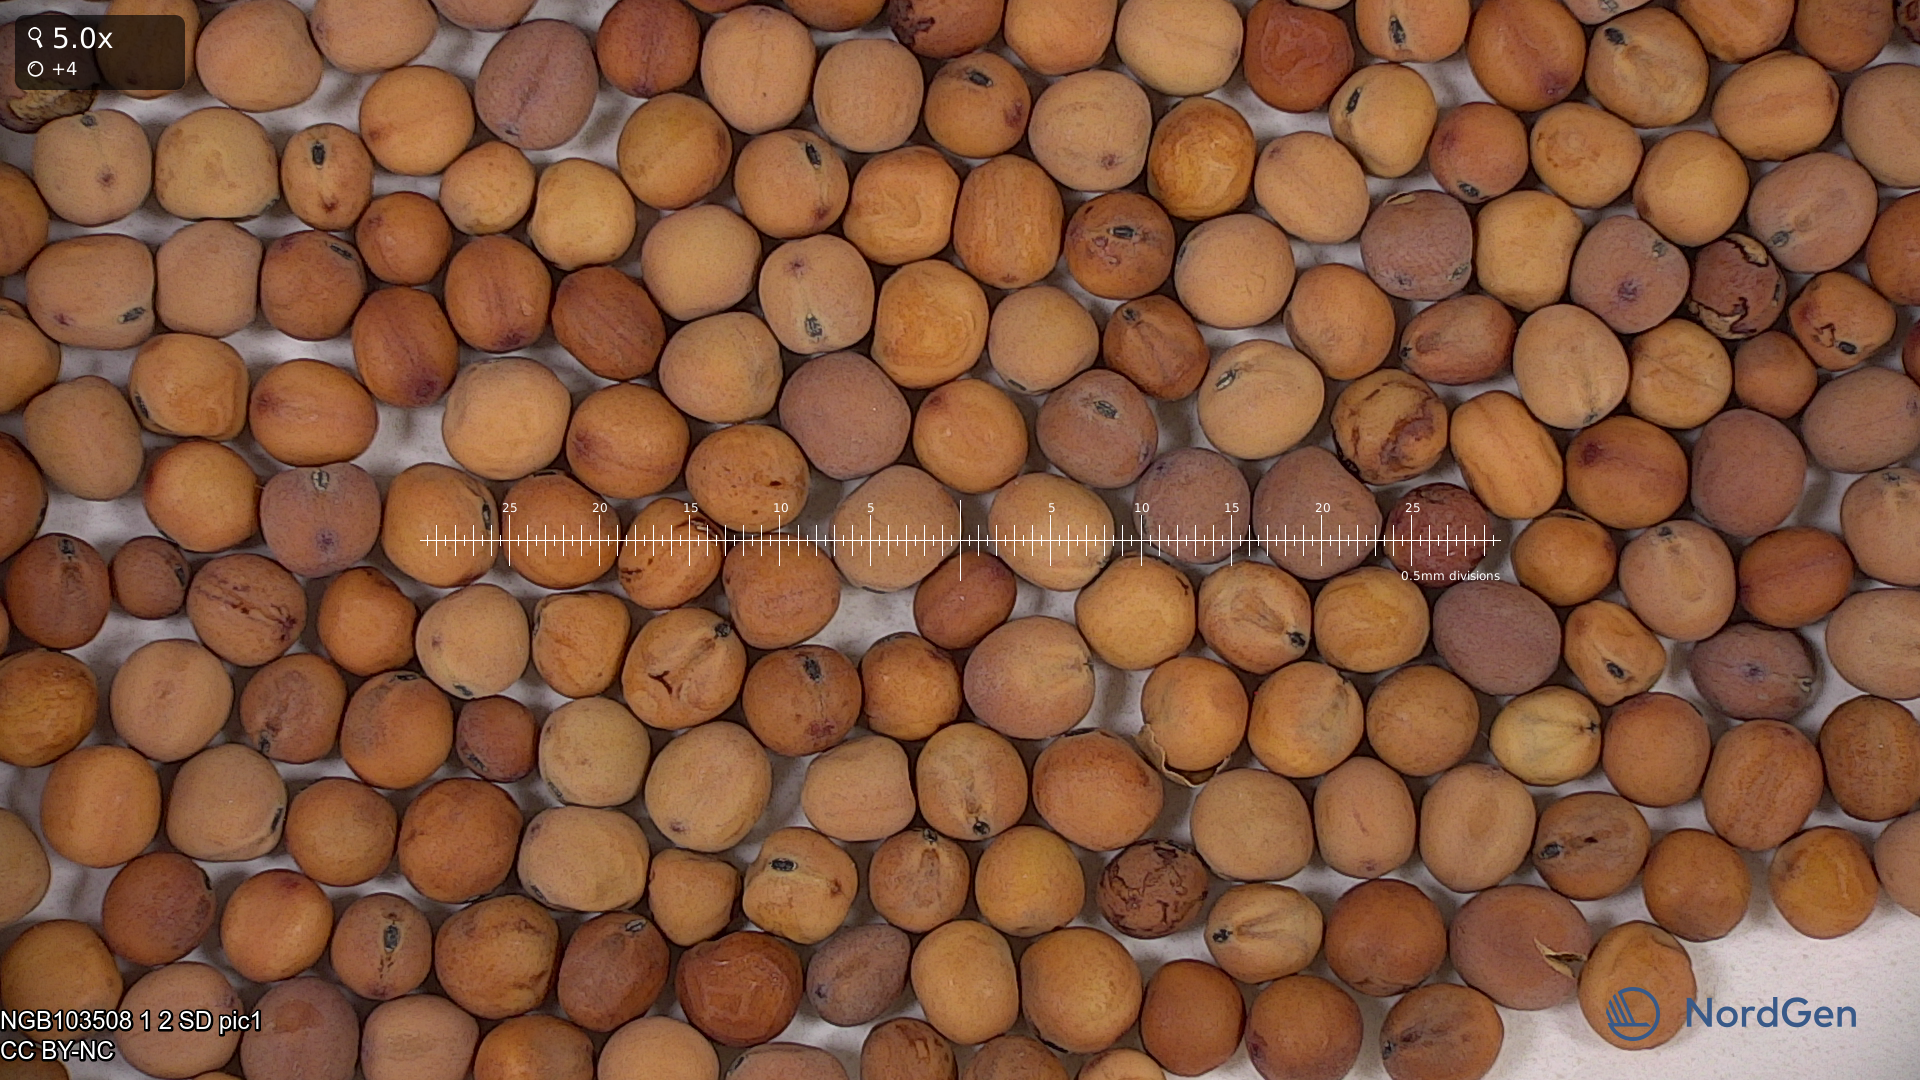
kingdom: Plantae
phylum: Tracheophyta
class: Magnoliopsida
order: Fabales
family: Fabaceae
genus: Lathyrus
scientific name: Lathyrus oleraceus
